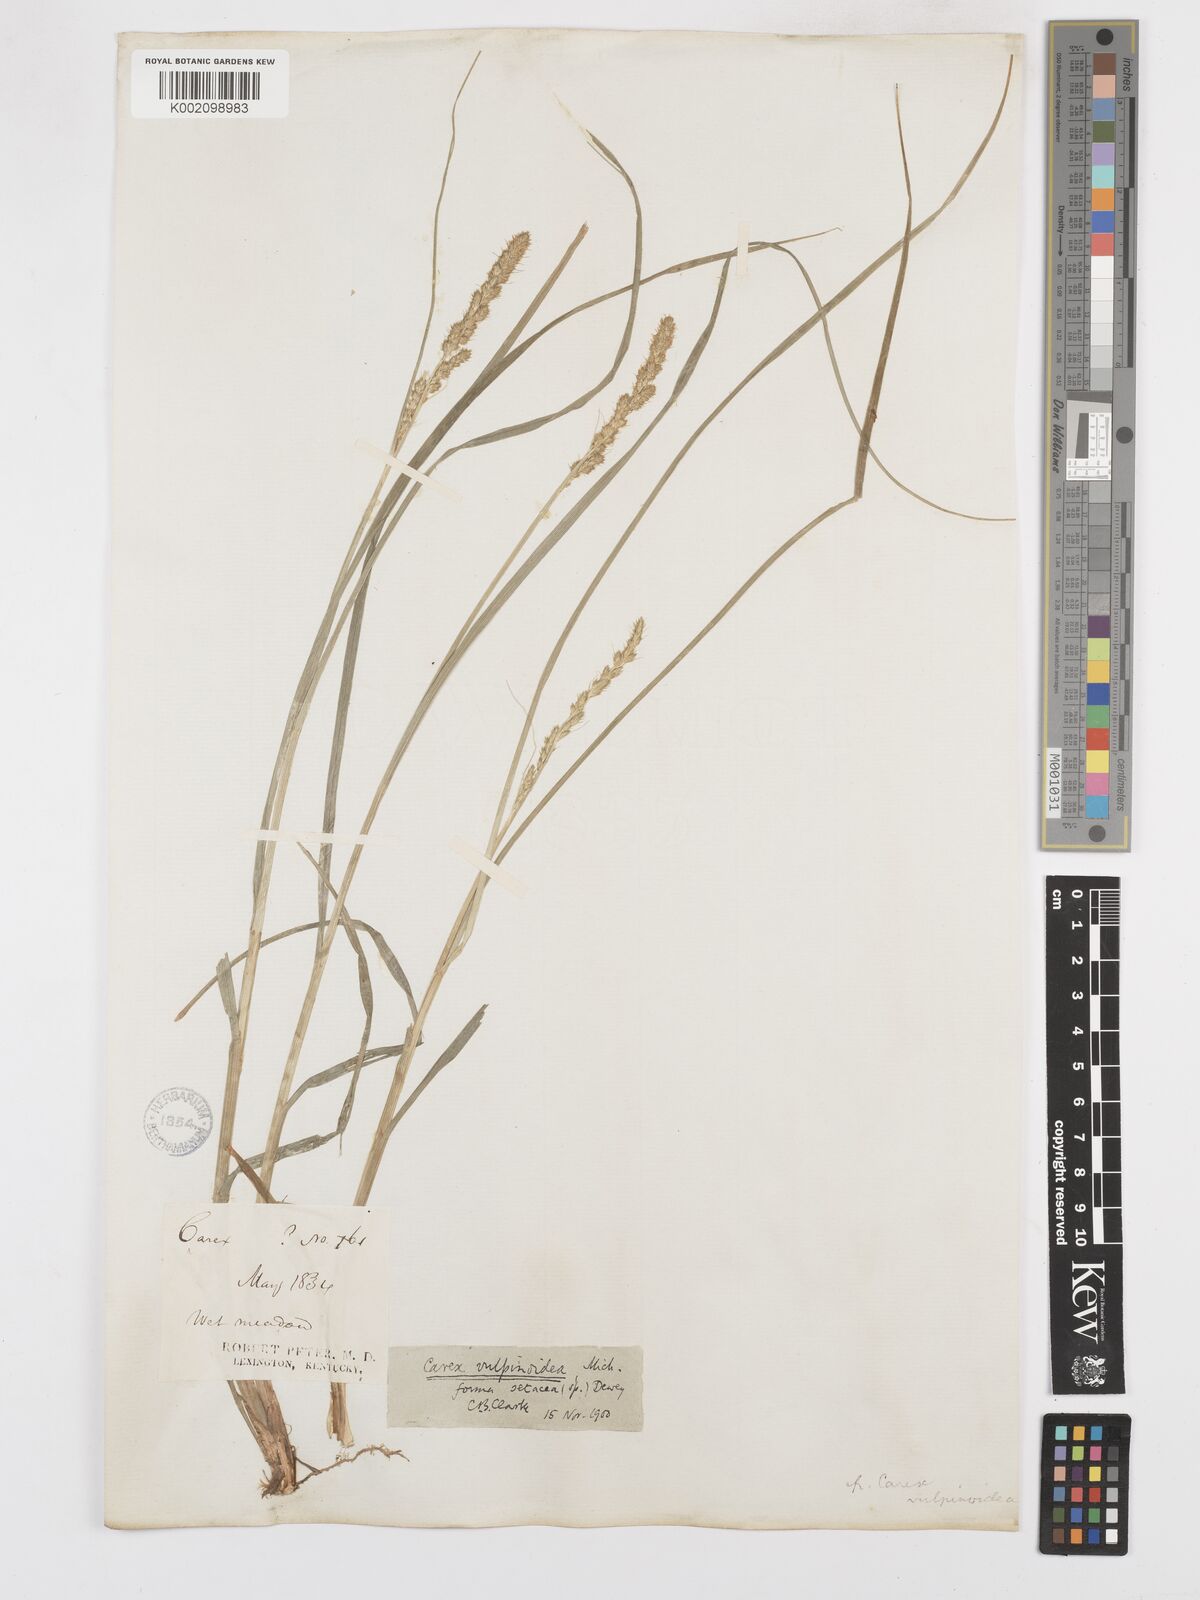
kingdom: Plantae
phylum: Tracheophyta
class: Liliopsida
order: Poales
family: Cyperaceae
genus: Carex
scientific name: Carex vulpinoidea
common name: American fox-sedge
